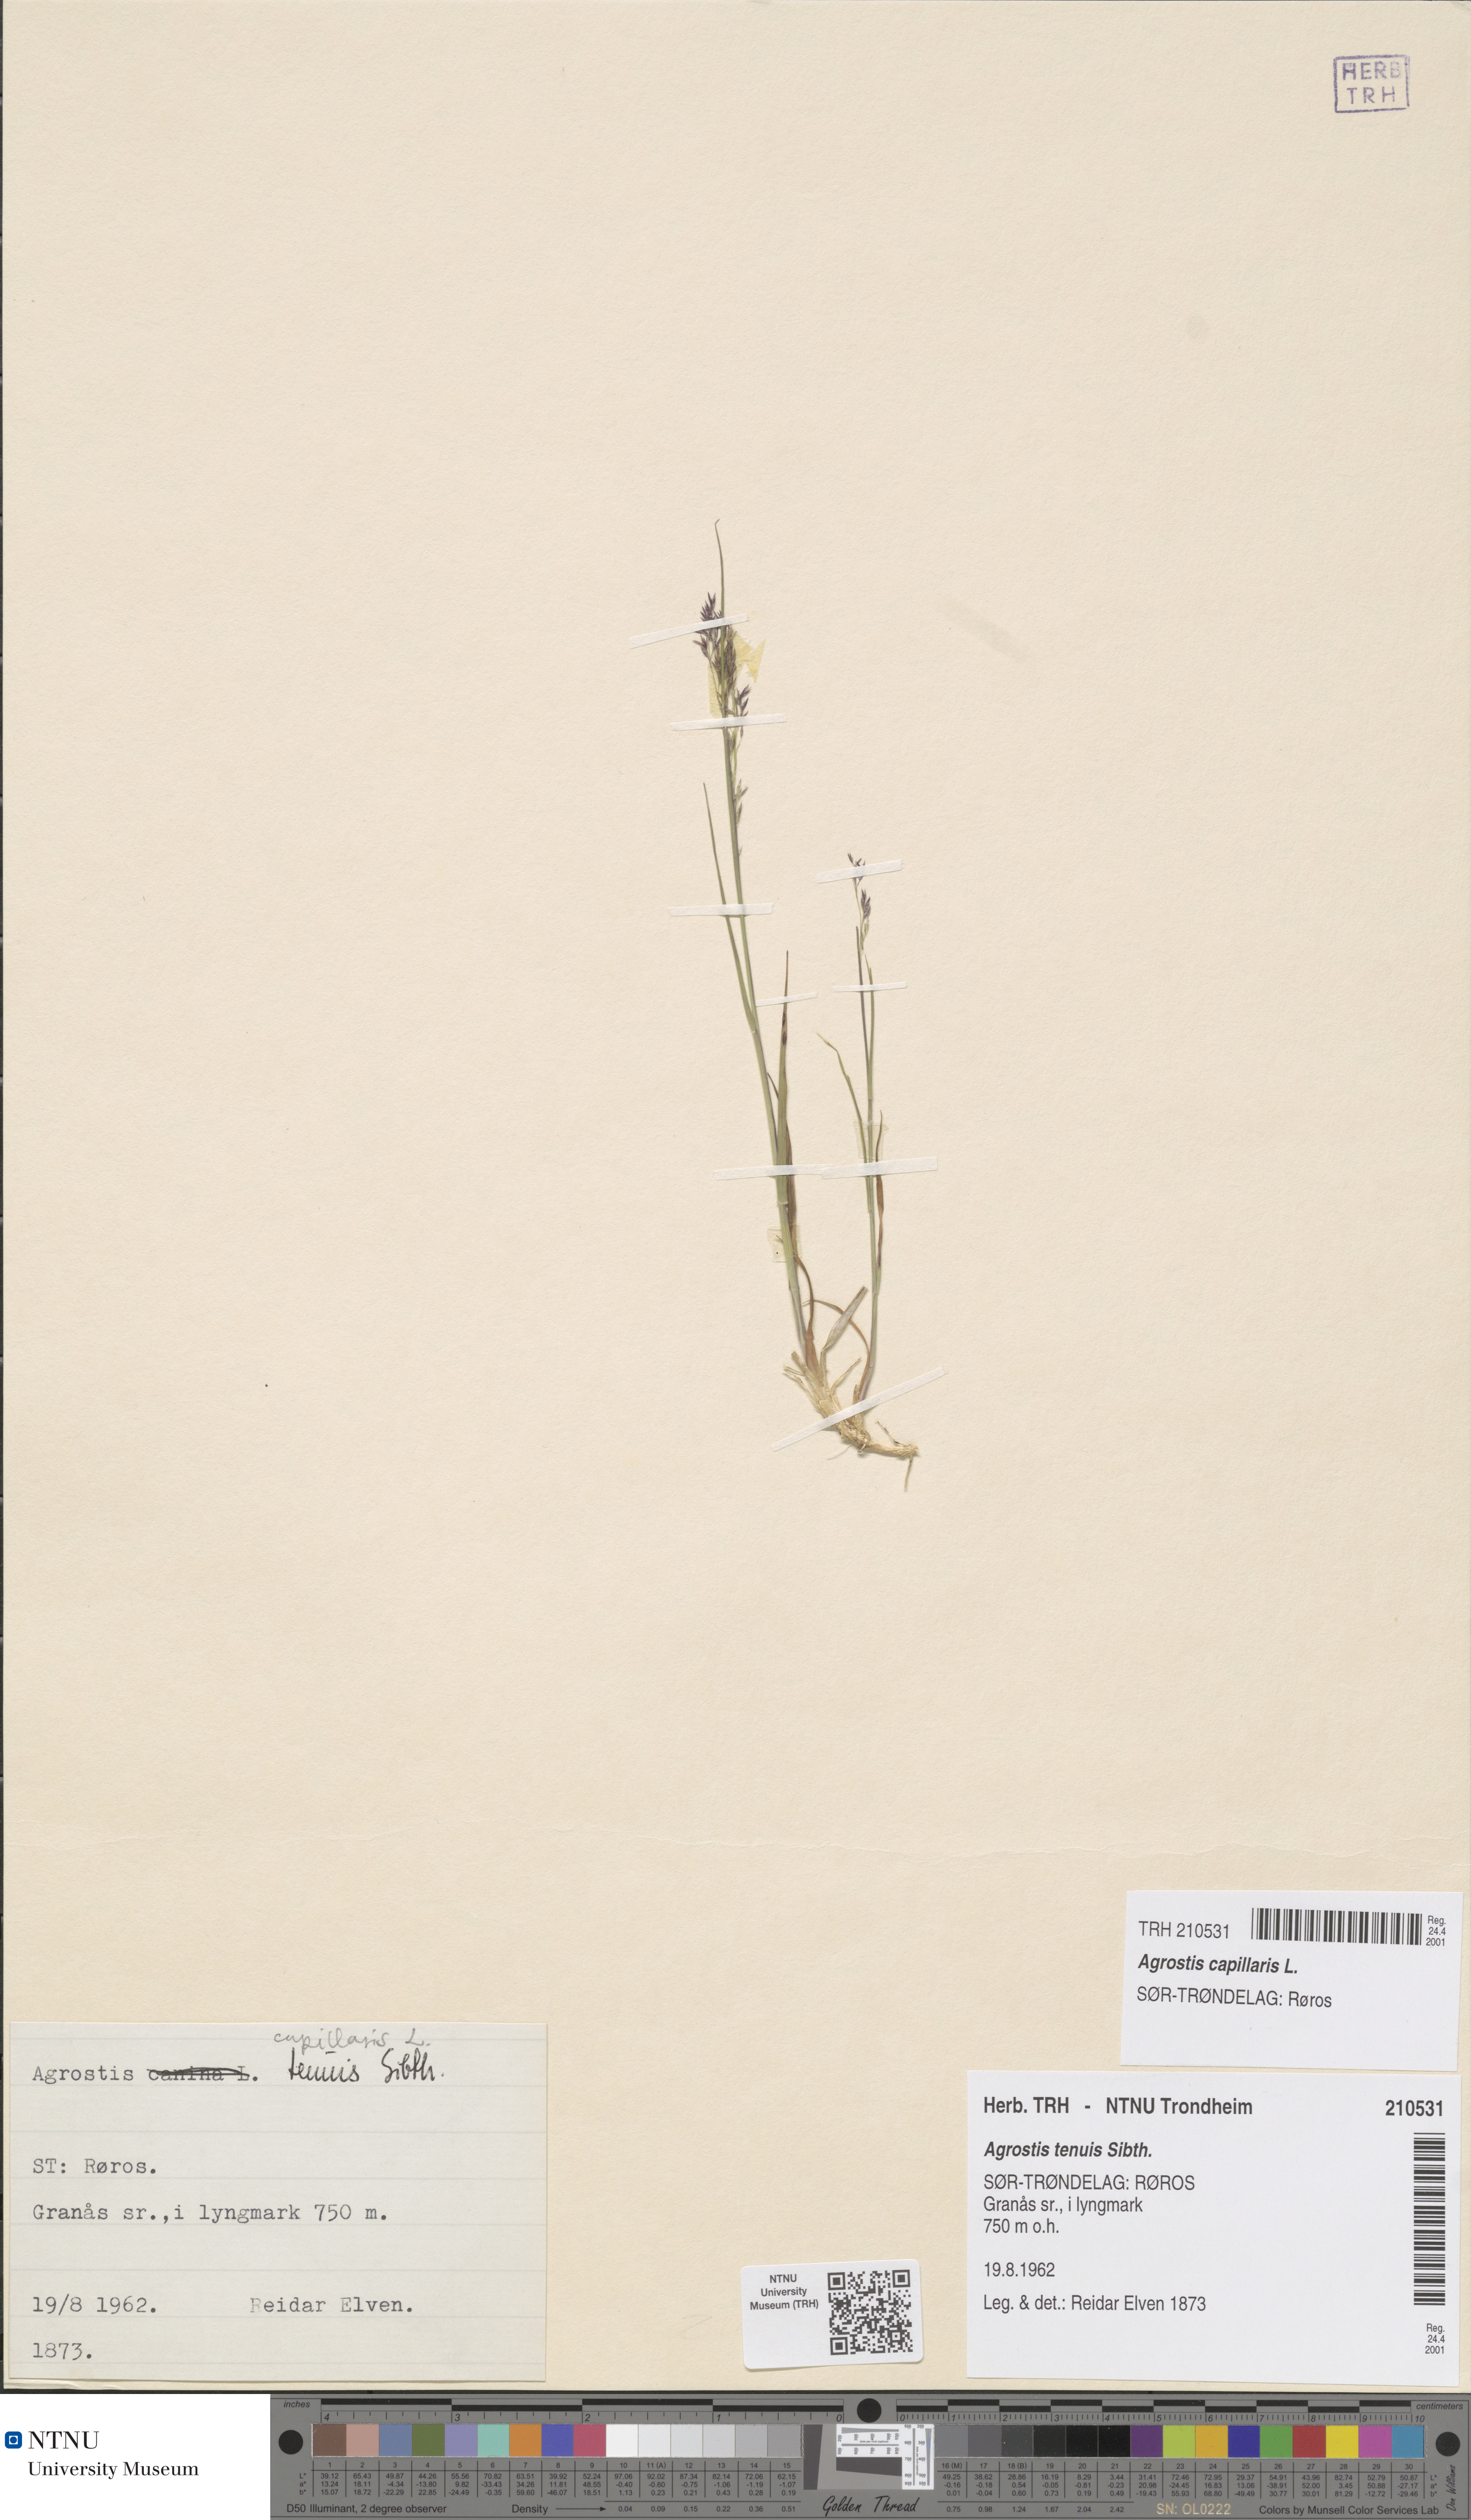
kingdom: Plantae
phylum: Tracheophyta
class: Liliopsida
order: Poales
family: Poaceae
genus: Agrostis
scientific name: Agrostis capillaris
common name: Colonial bentgrass
